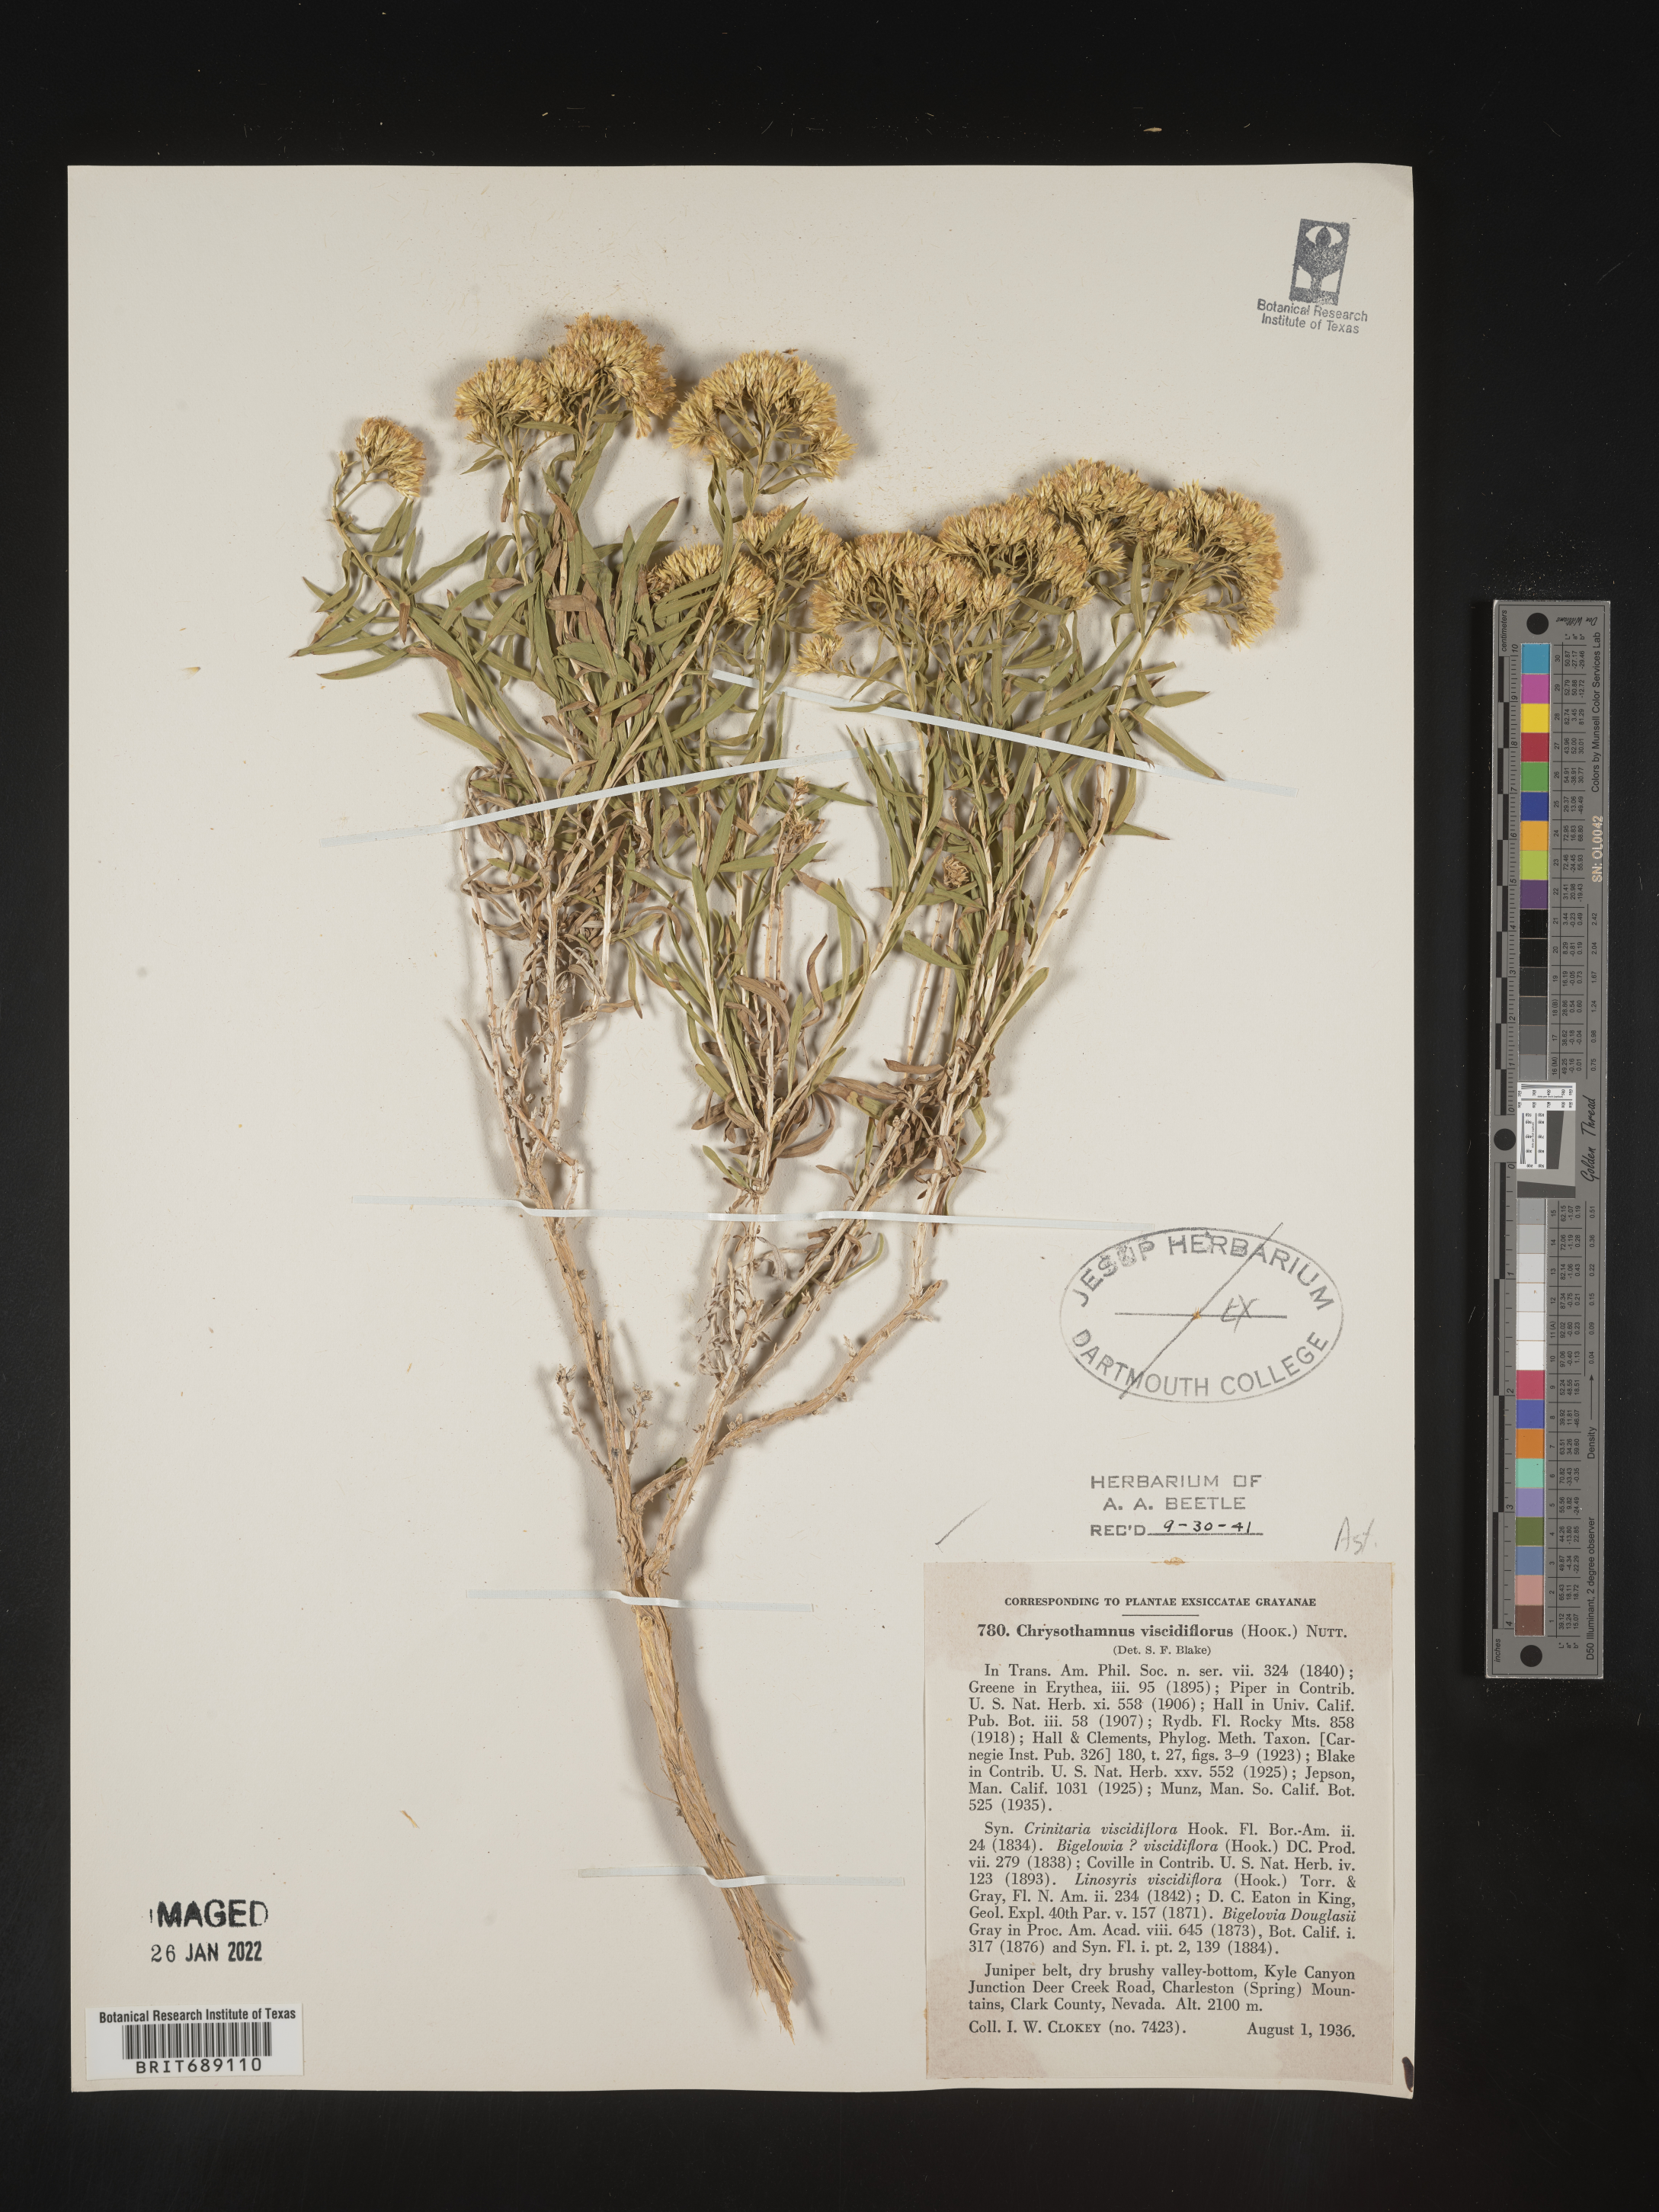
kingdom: Plantae
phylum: Tracheophyta
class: Magnoliopsida
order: Asterales
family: Asteraceae
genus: Chrysothamnus
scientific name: Chrysothamnus viscidiflorus
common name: Yellow rabbitbrush
